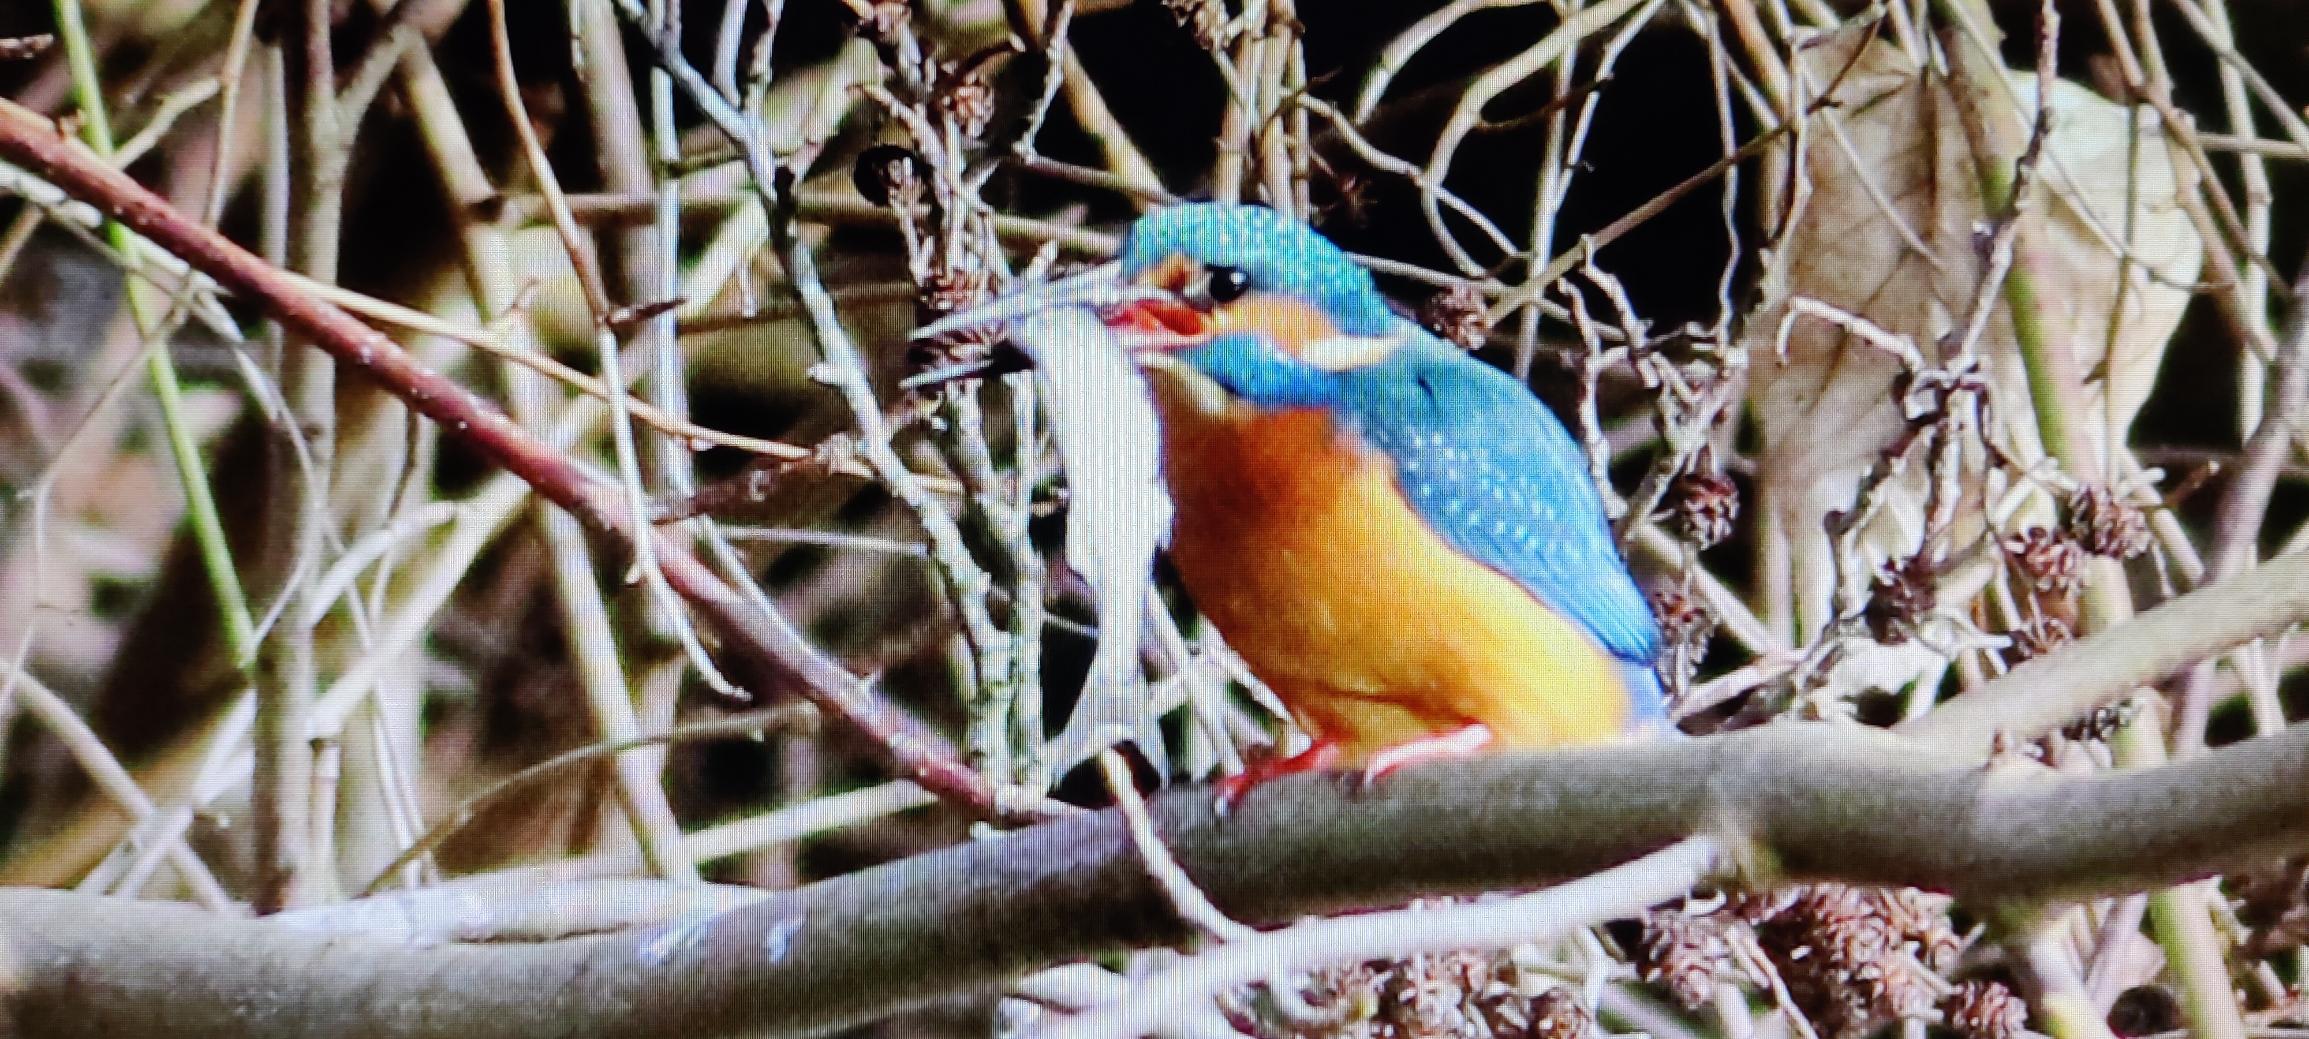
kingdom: Animalia
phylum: Chordata
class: Aves
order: Coraciiformes
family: Alcedinidae
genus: Alcedo
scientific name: Alcedo atthis
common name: Isfugl
